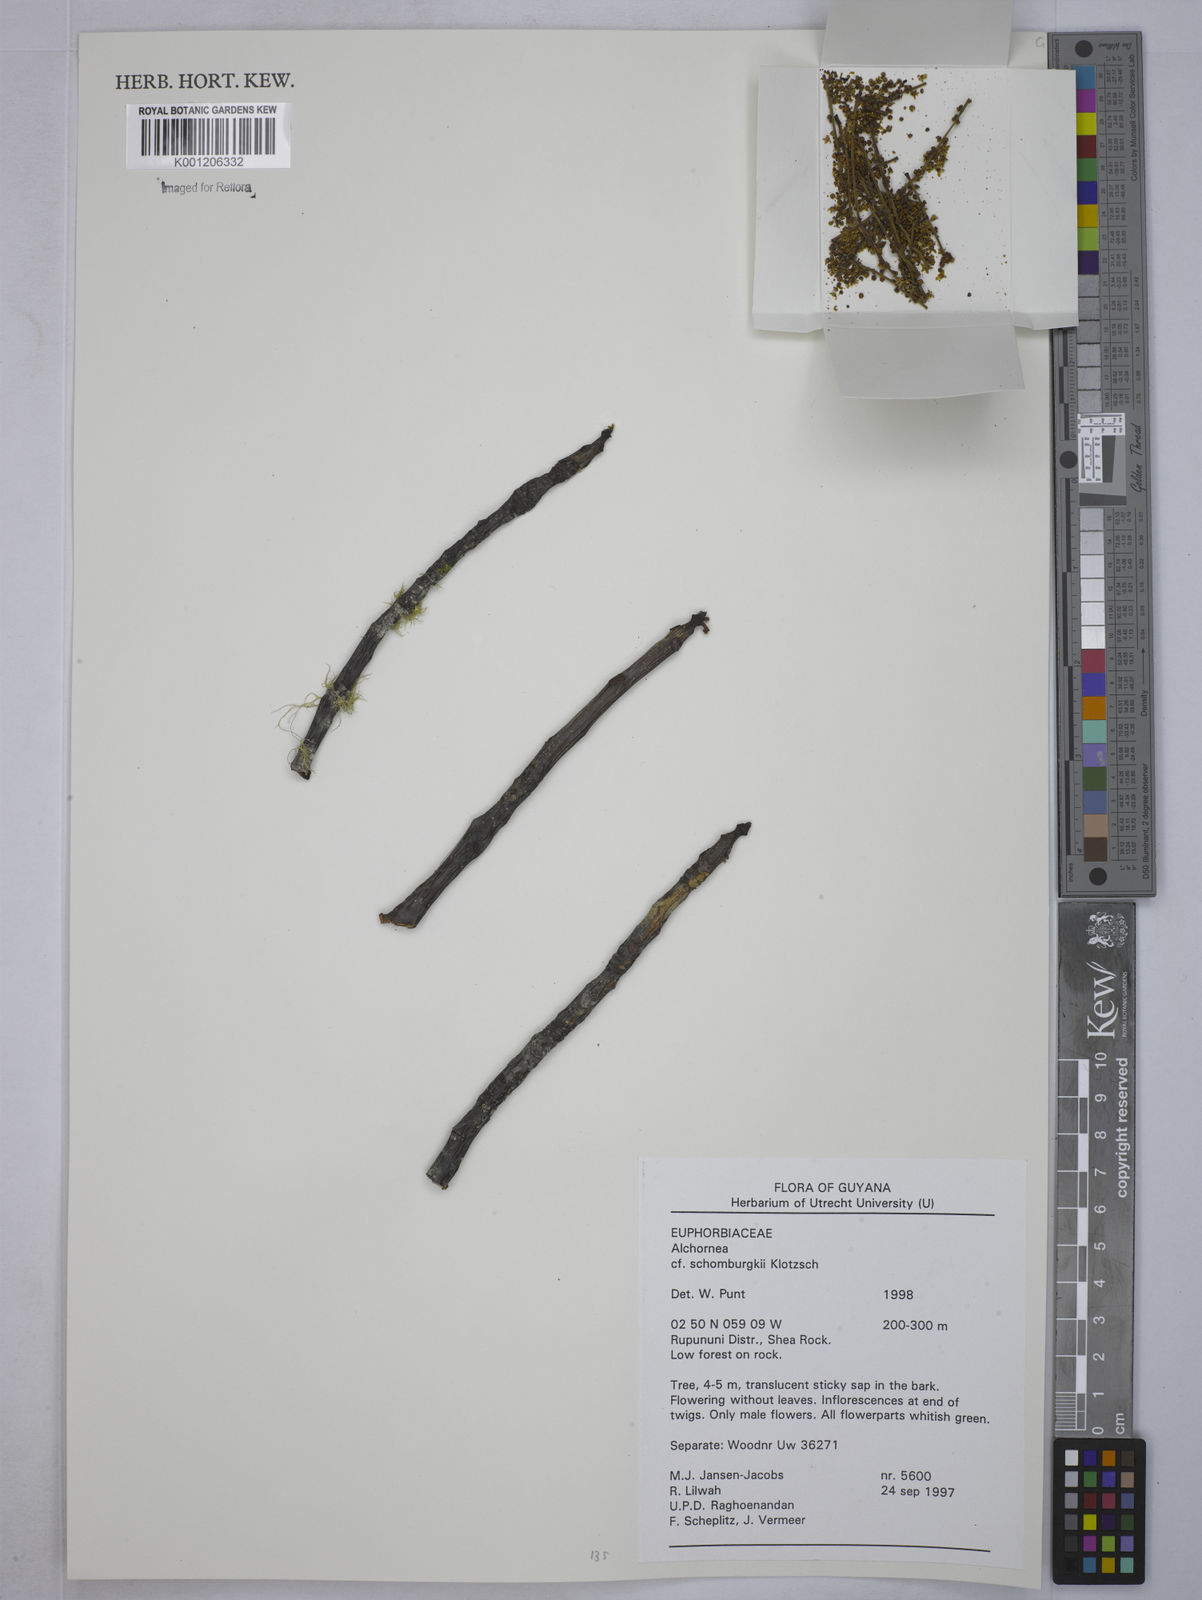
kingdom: Plantae
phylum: Tracheophyta
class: Magnoliopsida
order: Malpighiales
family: Euphorbiaceae
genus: Alchornea
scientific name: Alchornea discolor
